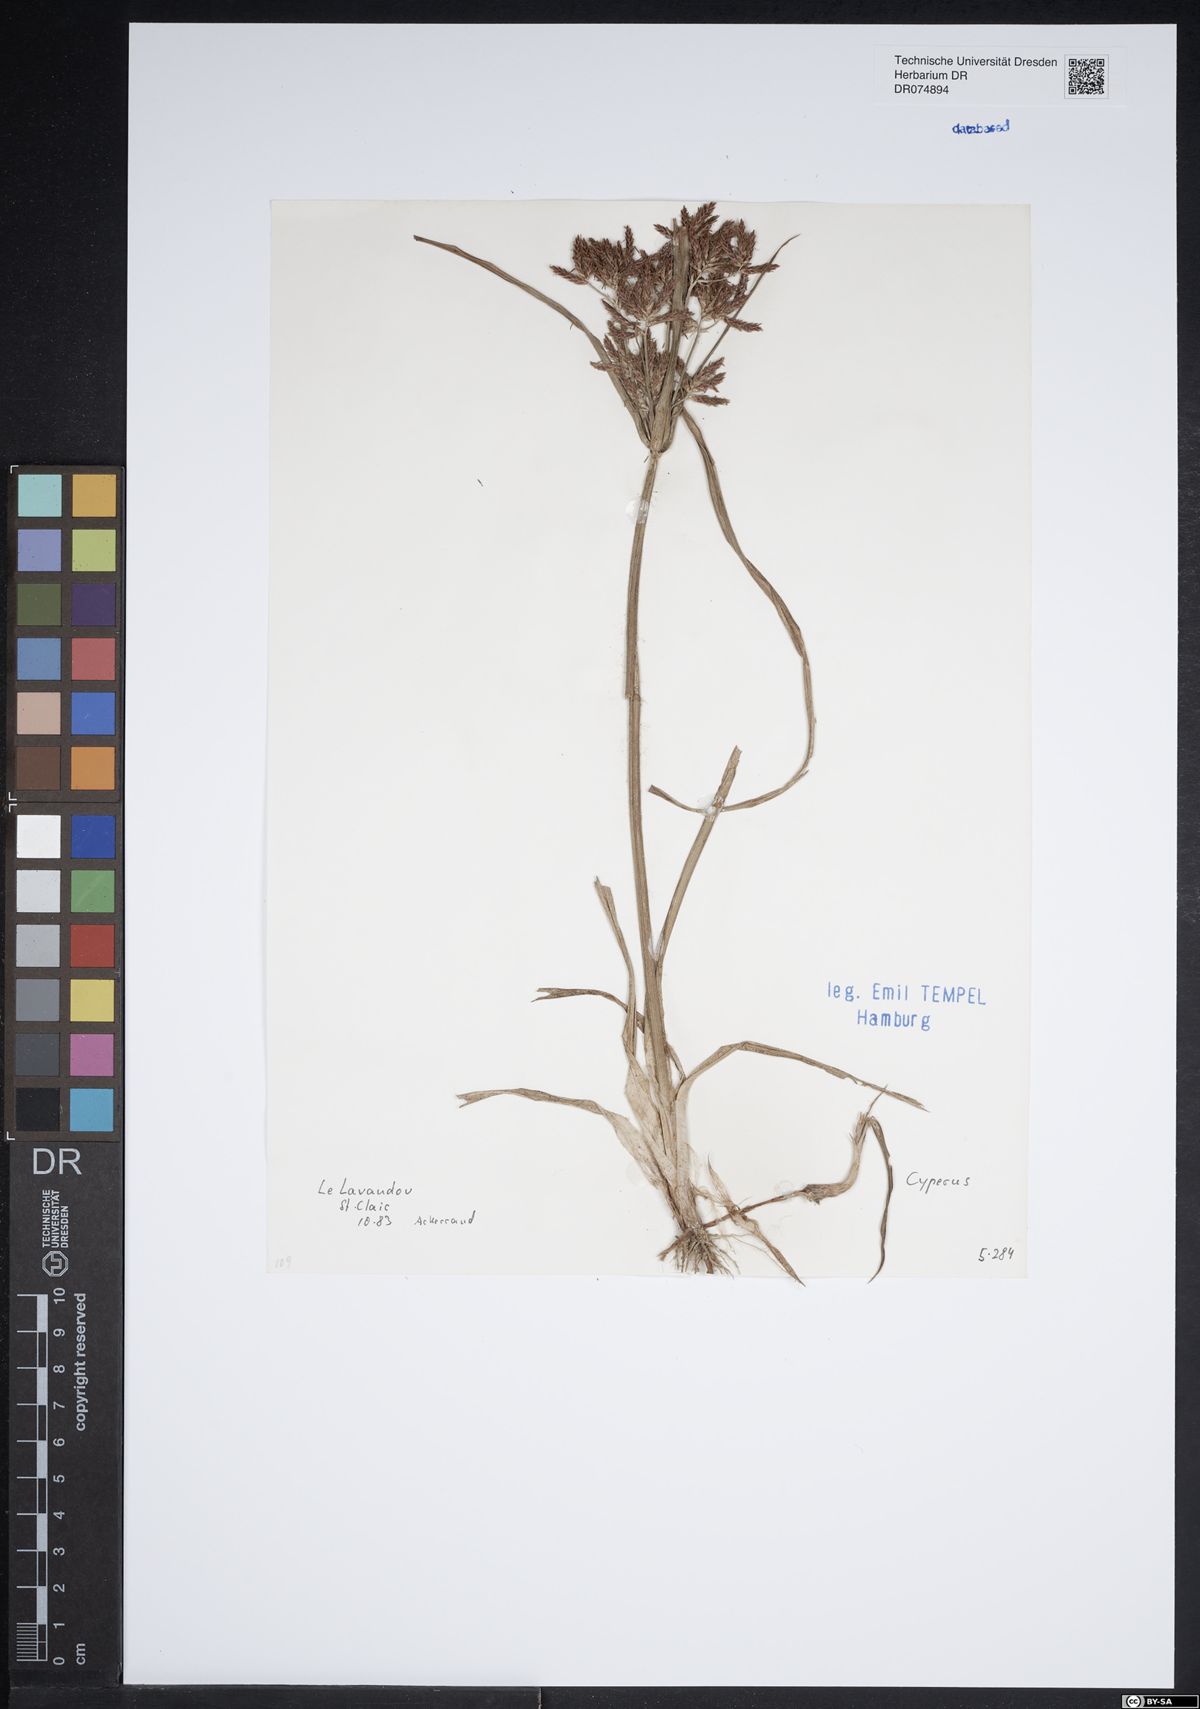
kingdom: Plantae
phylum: Tracheophyta
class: Liliopsida
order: Poales
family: Cyperaceae
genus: Cyperus
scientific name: Cyperus
